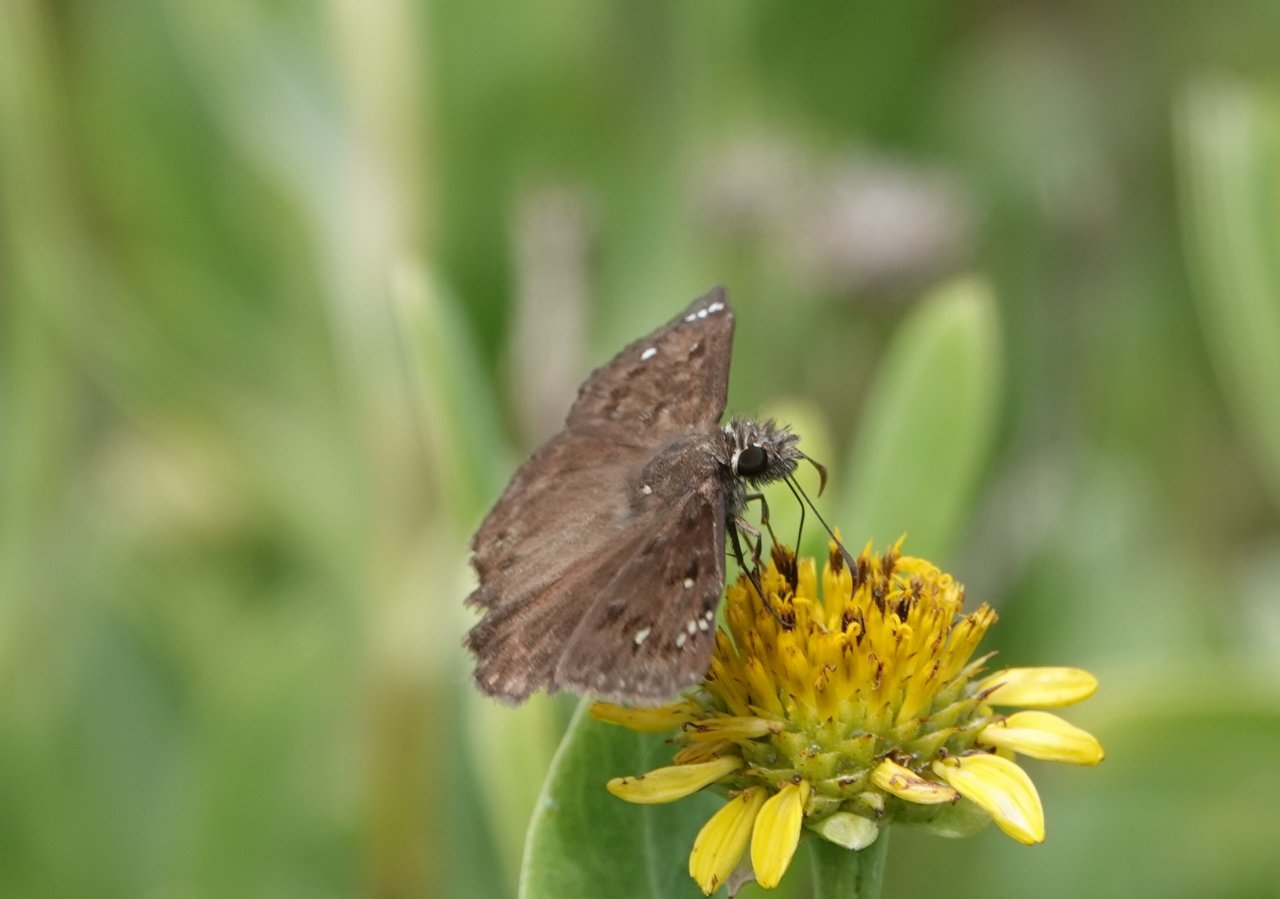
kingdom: Animalia
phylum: Arthropoda
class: Insecta
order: Lepidoptera
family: Hesperiidae
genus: Gesta
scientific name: Gesta
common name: Horace's Duskywing
